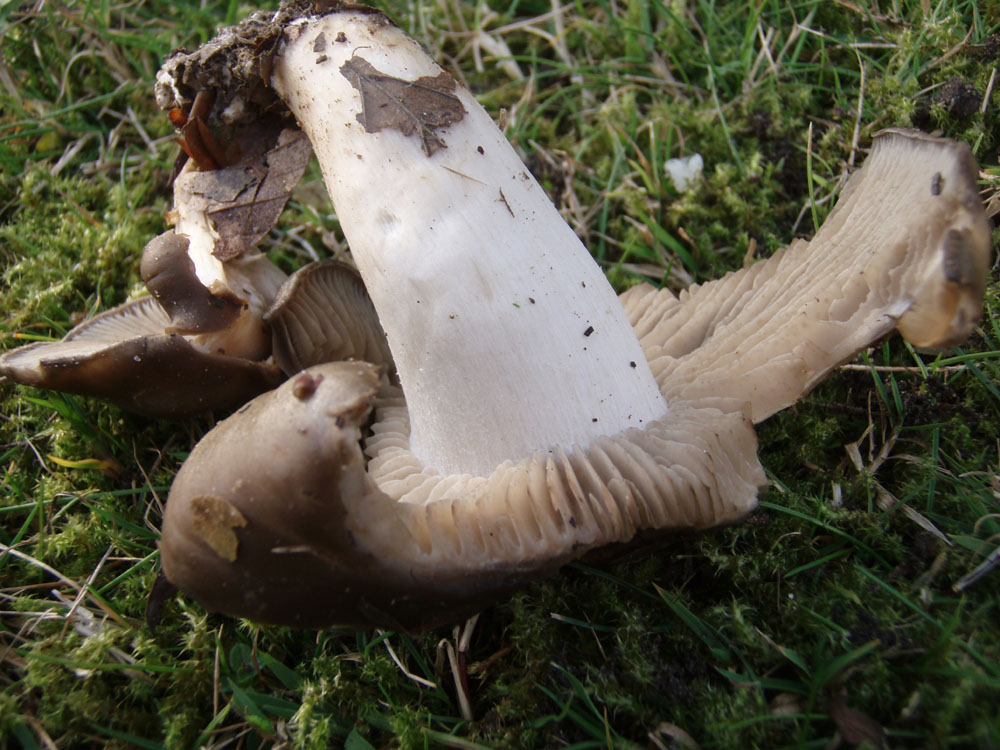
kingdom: Fungi
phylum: Basidiomycota
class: Agaricomycetes
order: Agaricales
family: Lyophyllaceae
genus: Lyophyllum
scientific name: Lyophyllum decastes
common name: Clustered domecap
